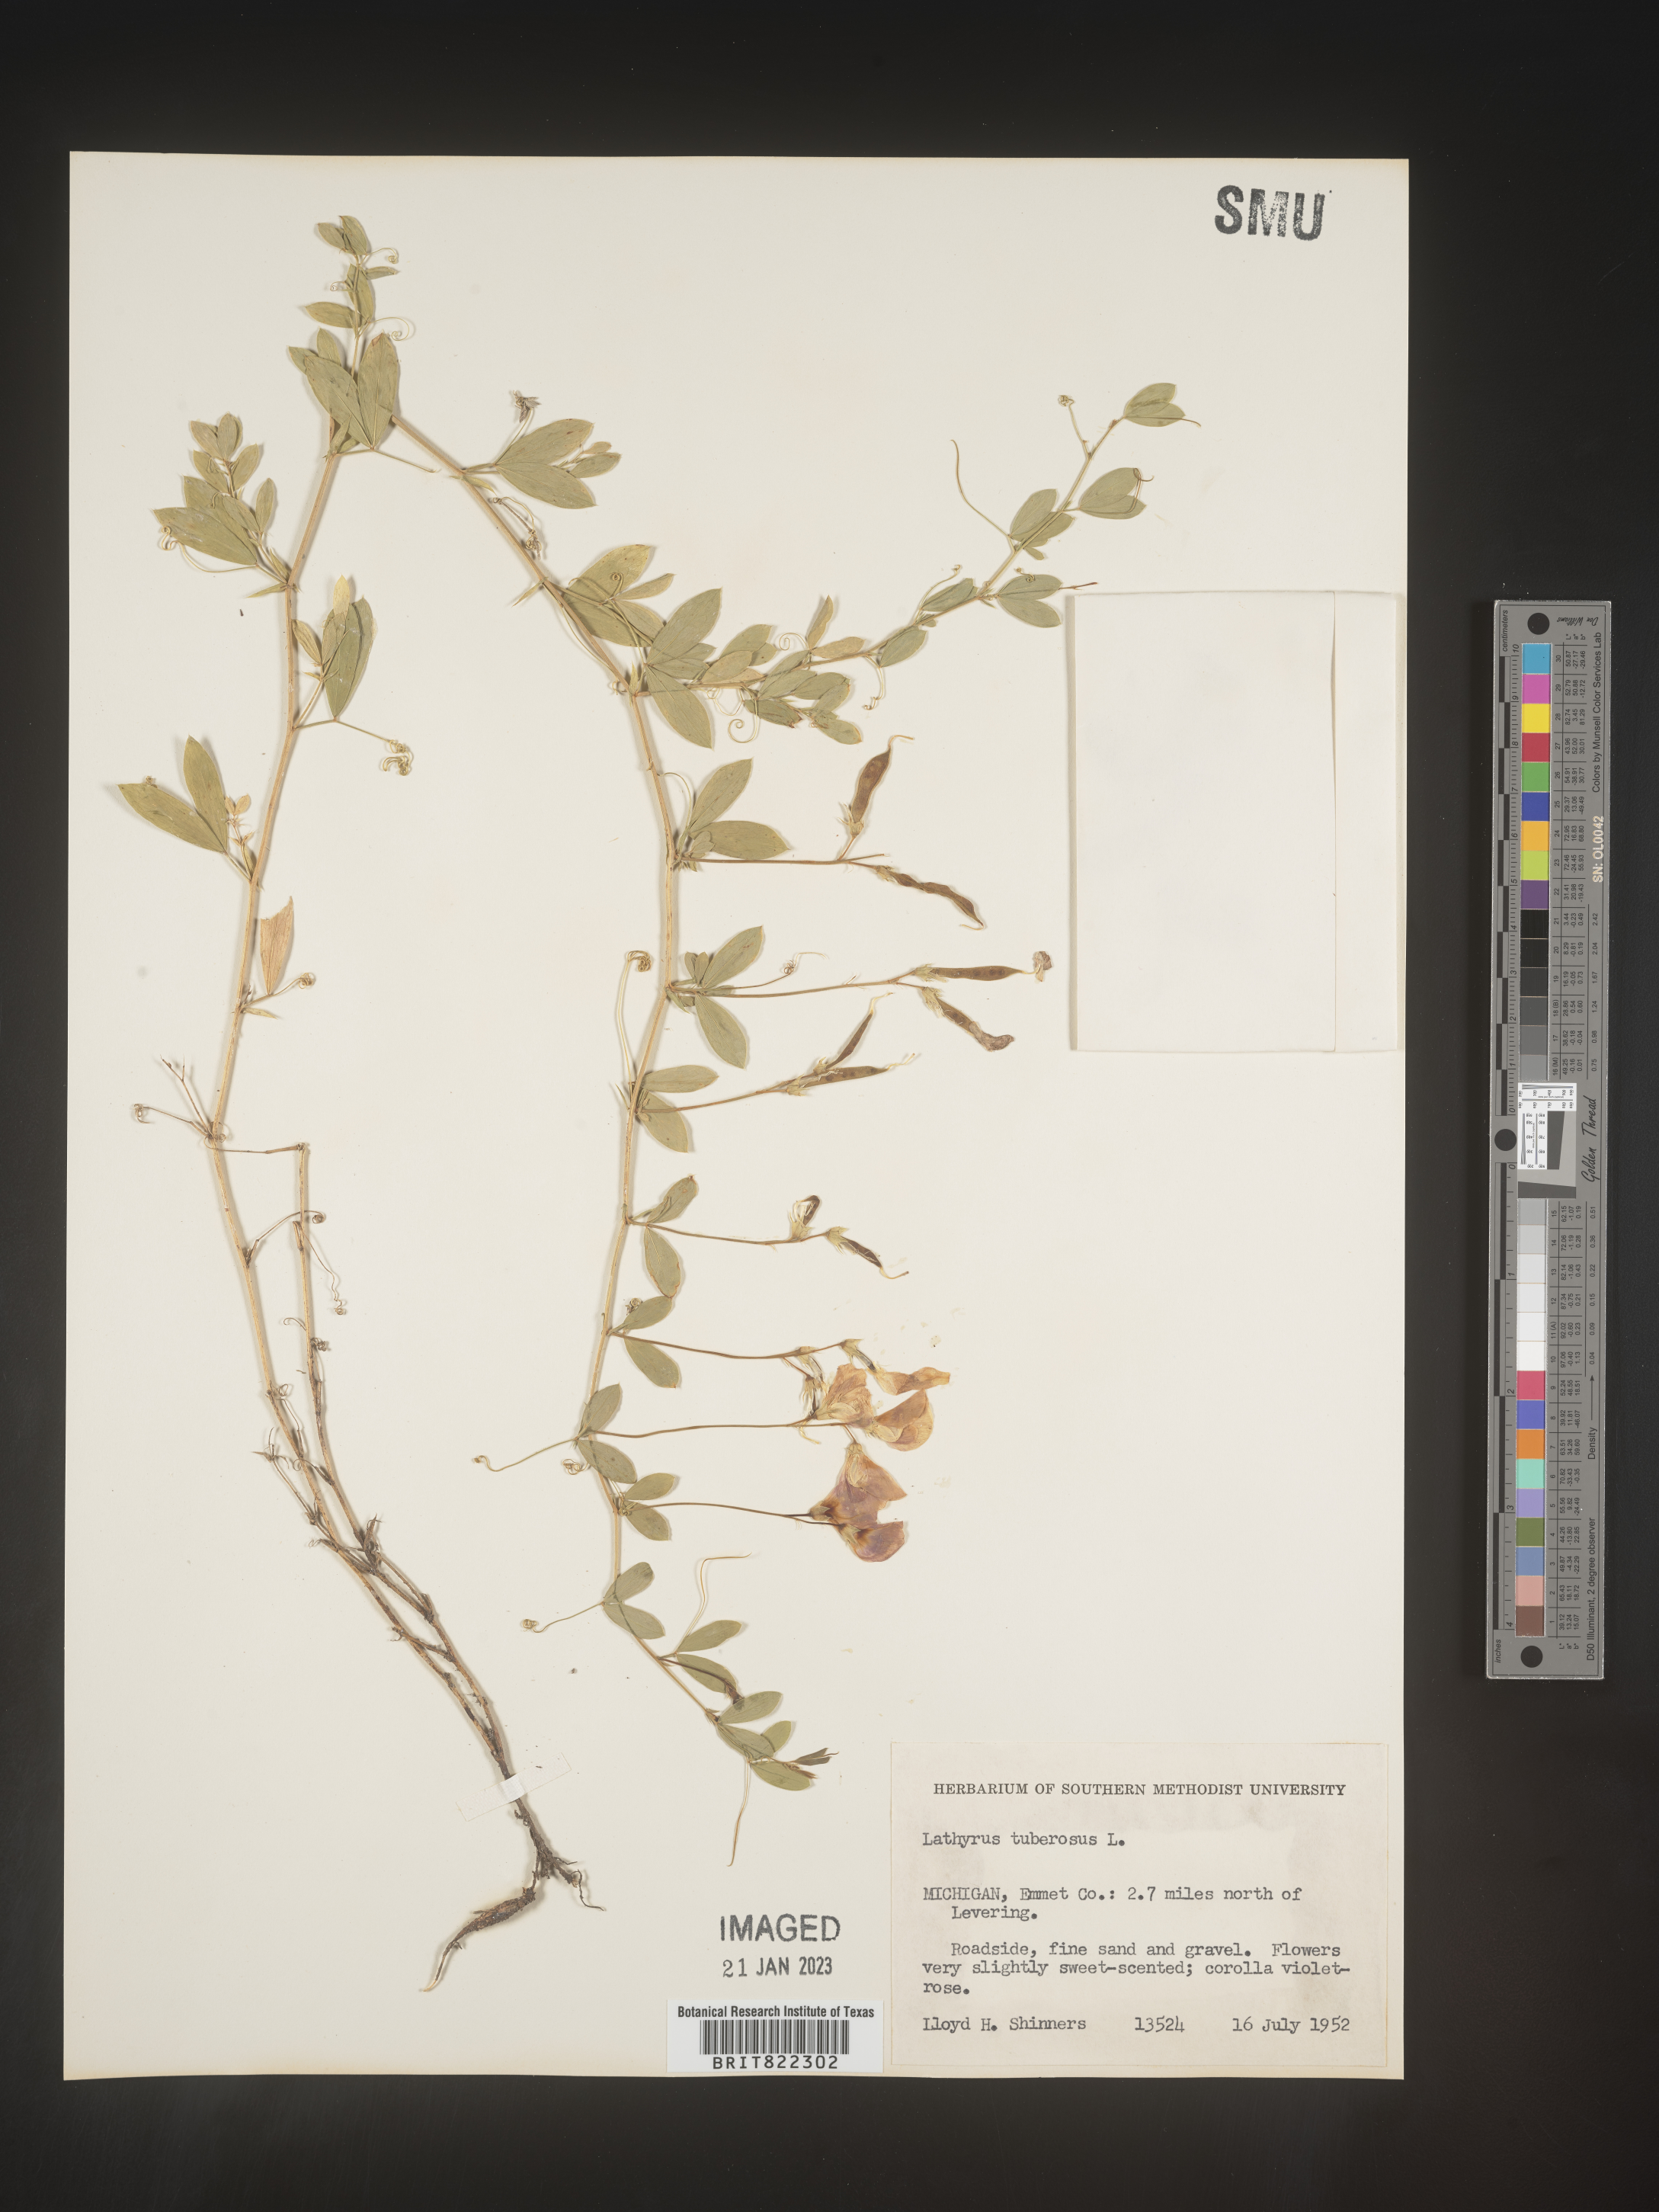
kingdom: Plantae
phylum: Tracheophyta
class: Magnoliopsida
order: Fabales
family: Fabaceae
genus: Lathyrus
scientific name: Lathyrus
